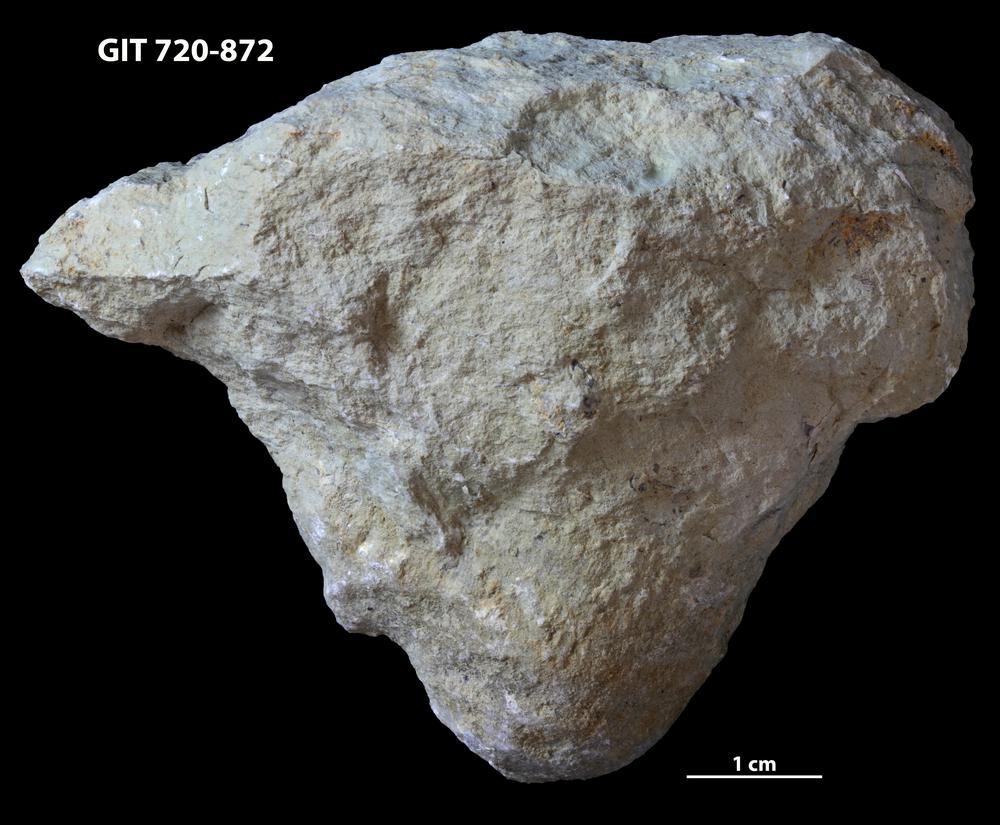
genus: Conichnus
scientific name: Conichnus
